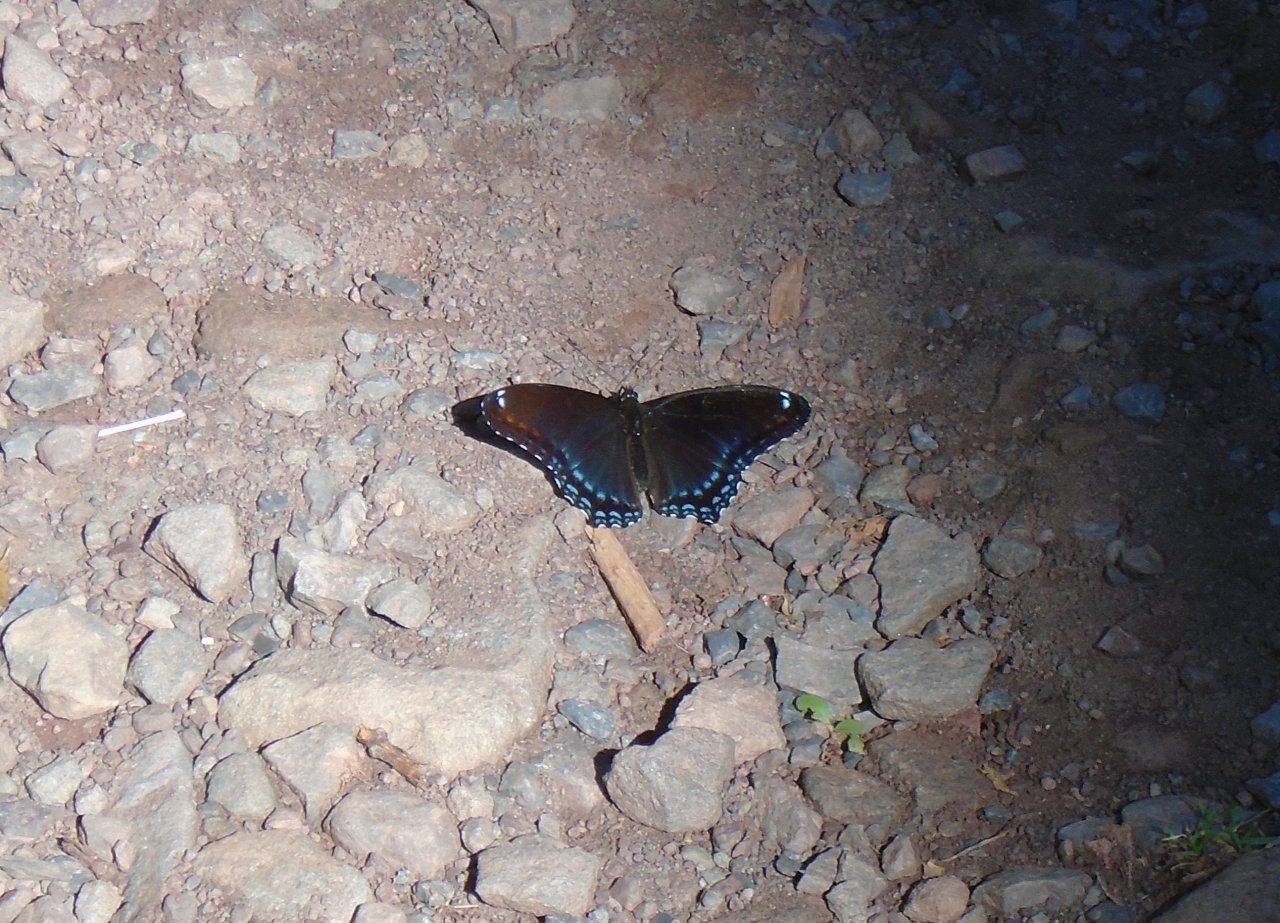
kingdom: Animalia
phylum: Arthropoda
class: Insecta
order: Lepidoptera
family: Nymphalidae
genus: Limenitis
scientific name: Limenitis astyanax
